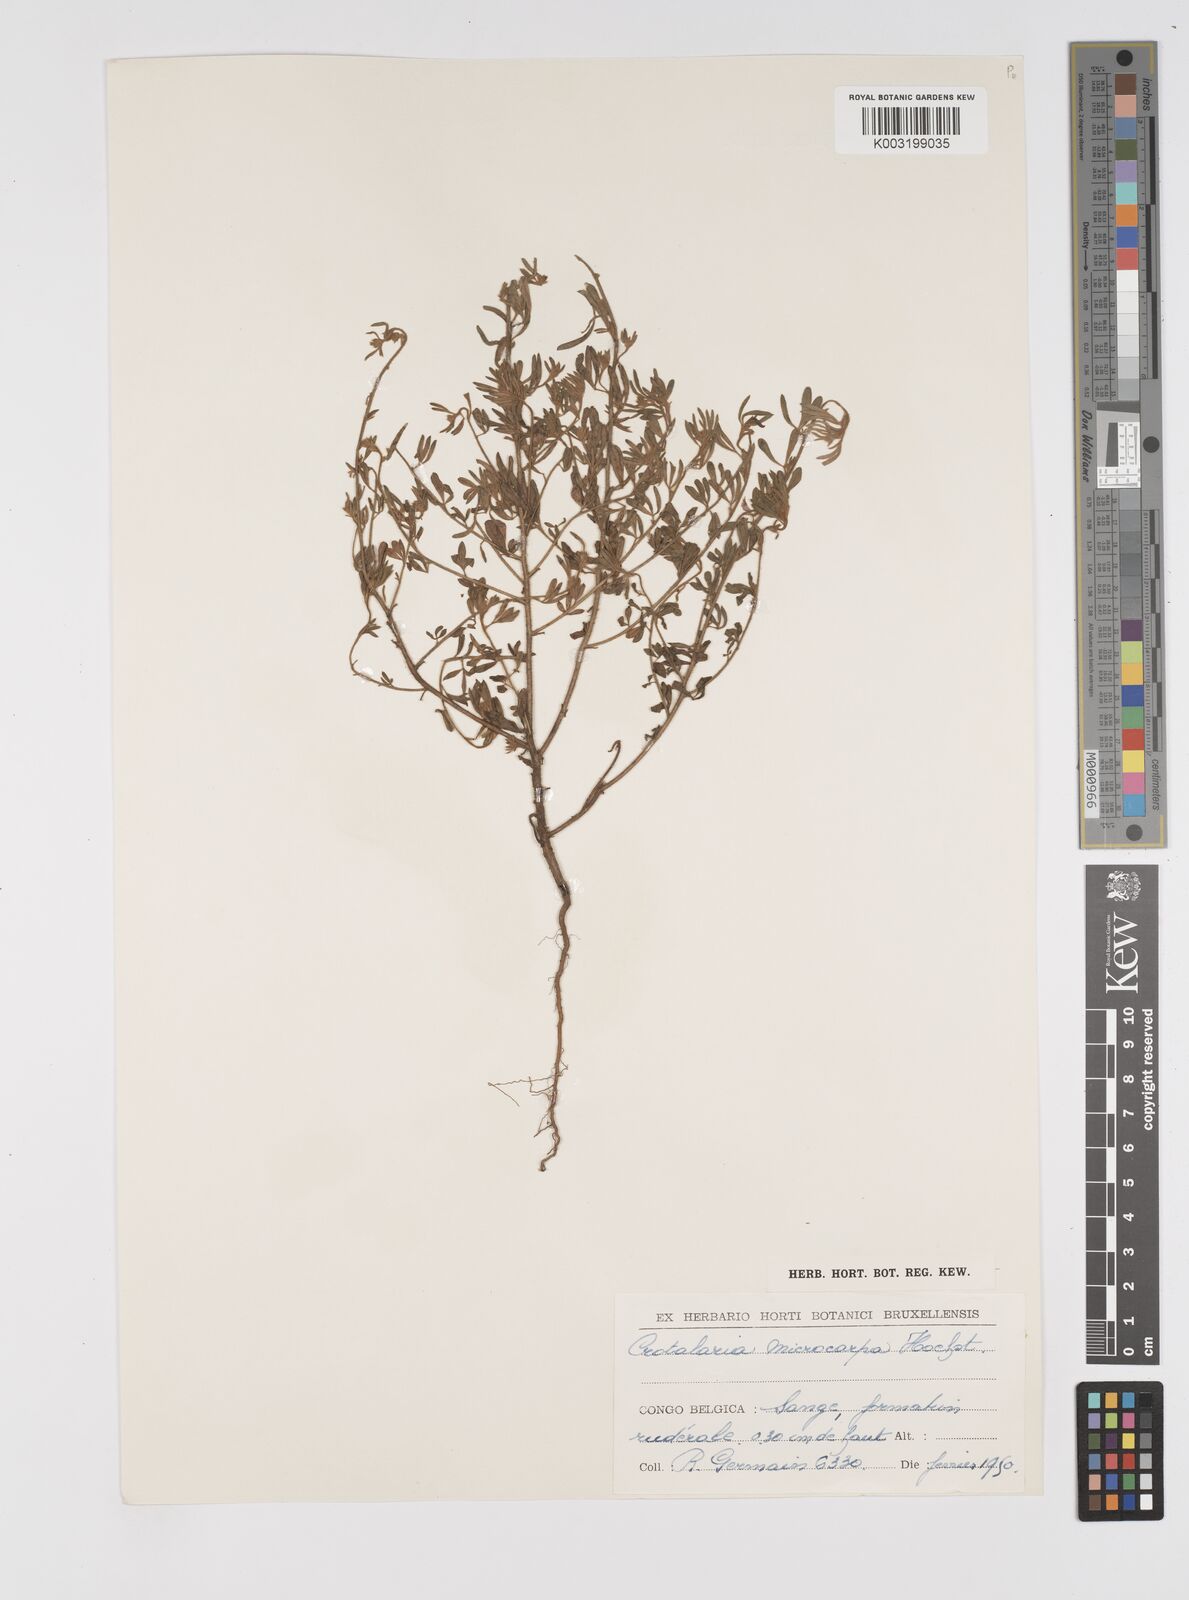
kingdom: Plantae
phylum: Tracheophyta
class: Magnoliopsida
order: Fabales
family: Fabaceae
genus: Crotalaria
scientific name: Crotalaria microcarpa
